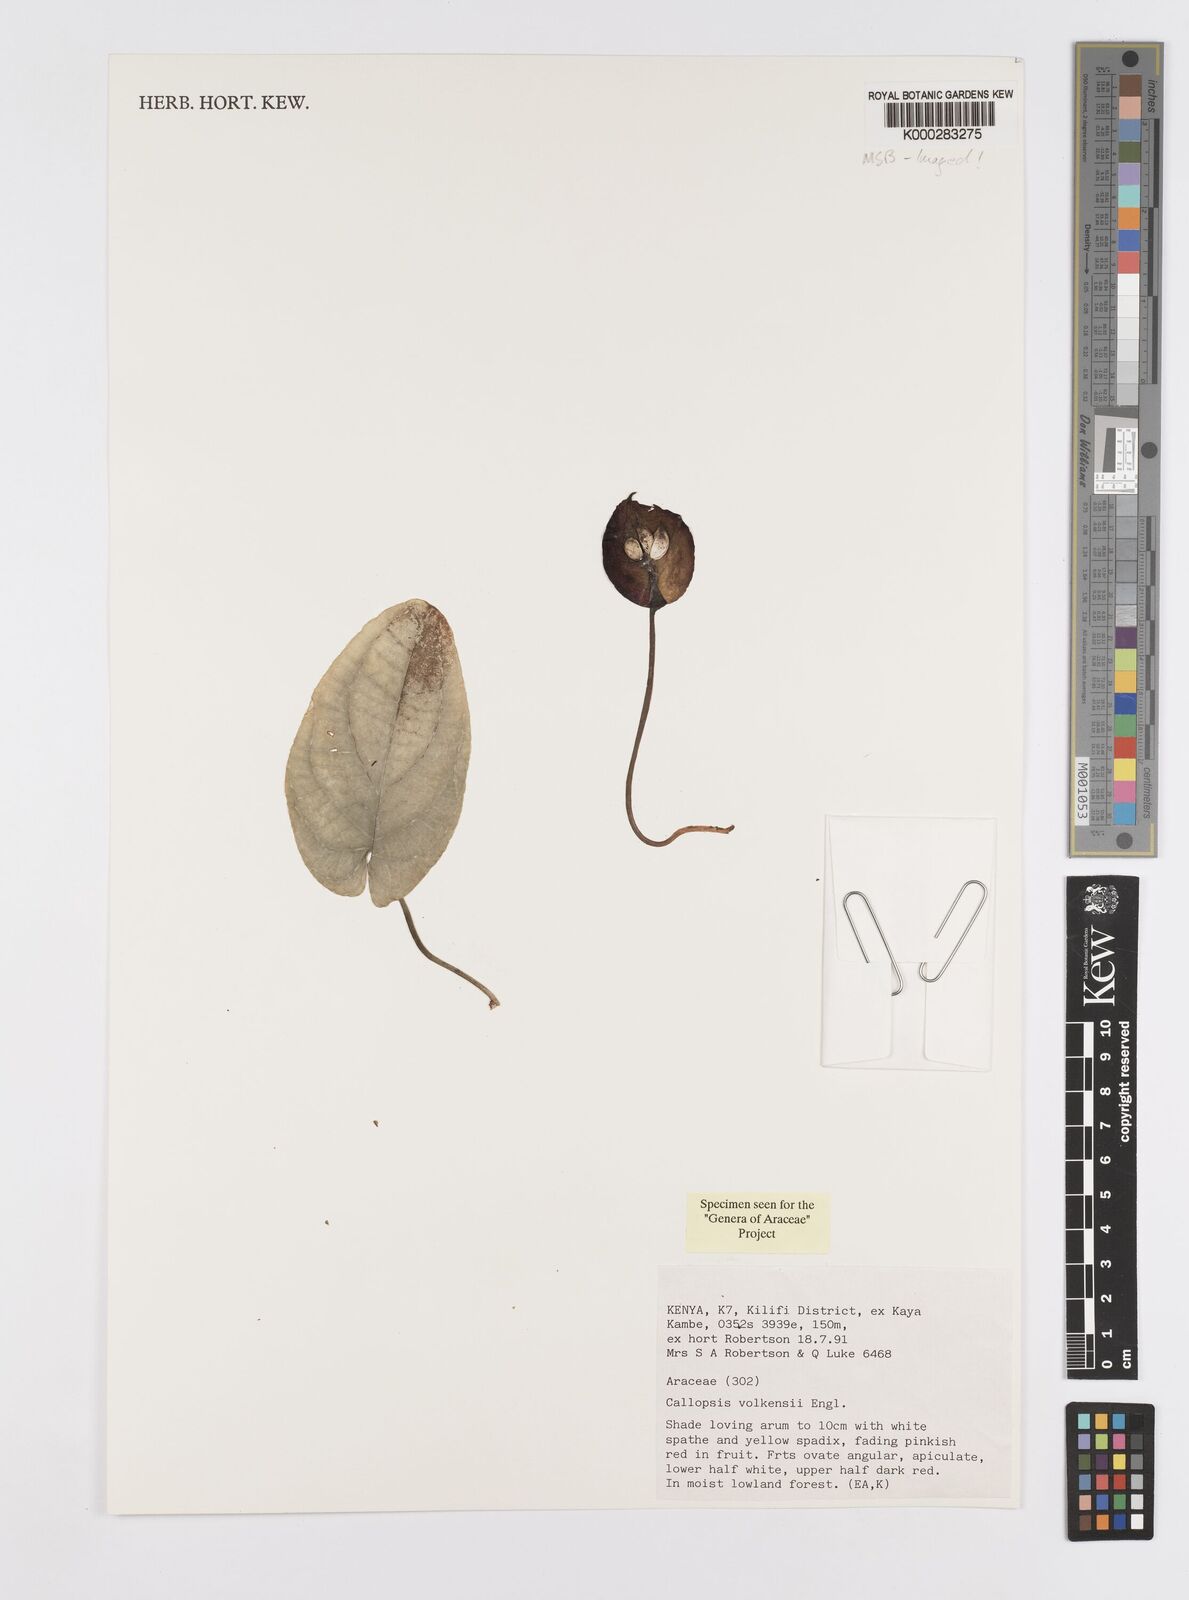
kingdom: Plantae
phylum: Tracheophyta
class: Liliopsida
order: Alismatales
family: Araceae
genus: Callopsis
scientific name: Callopsis volkensii
